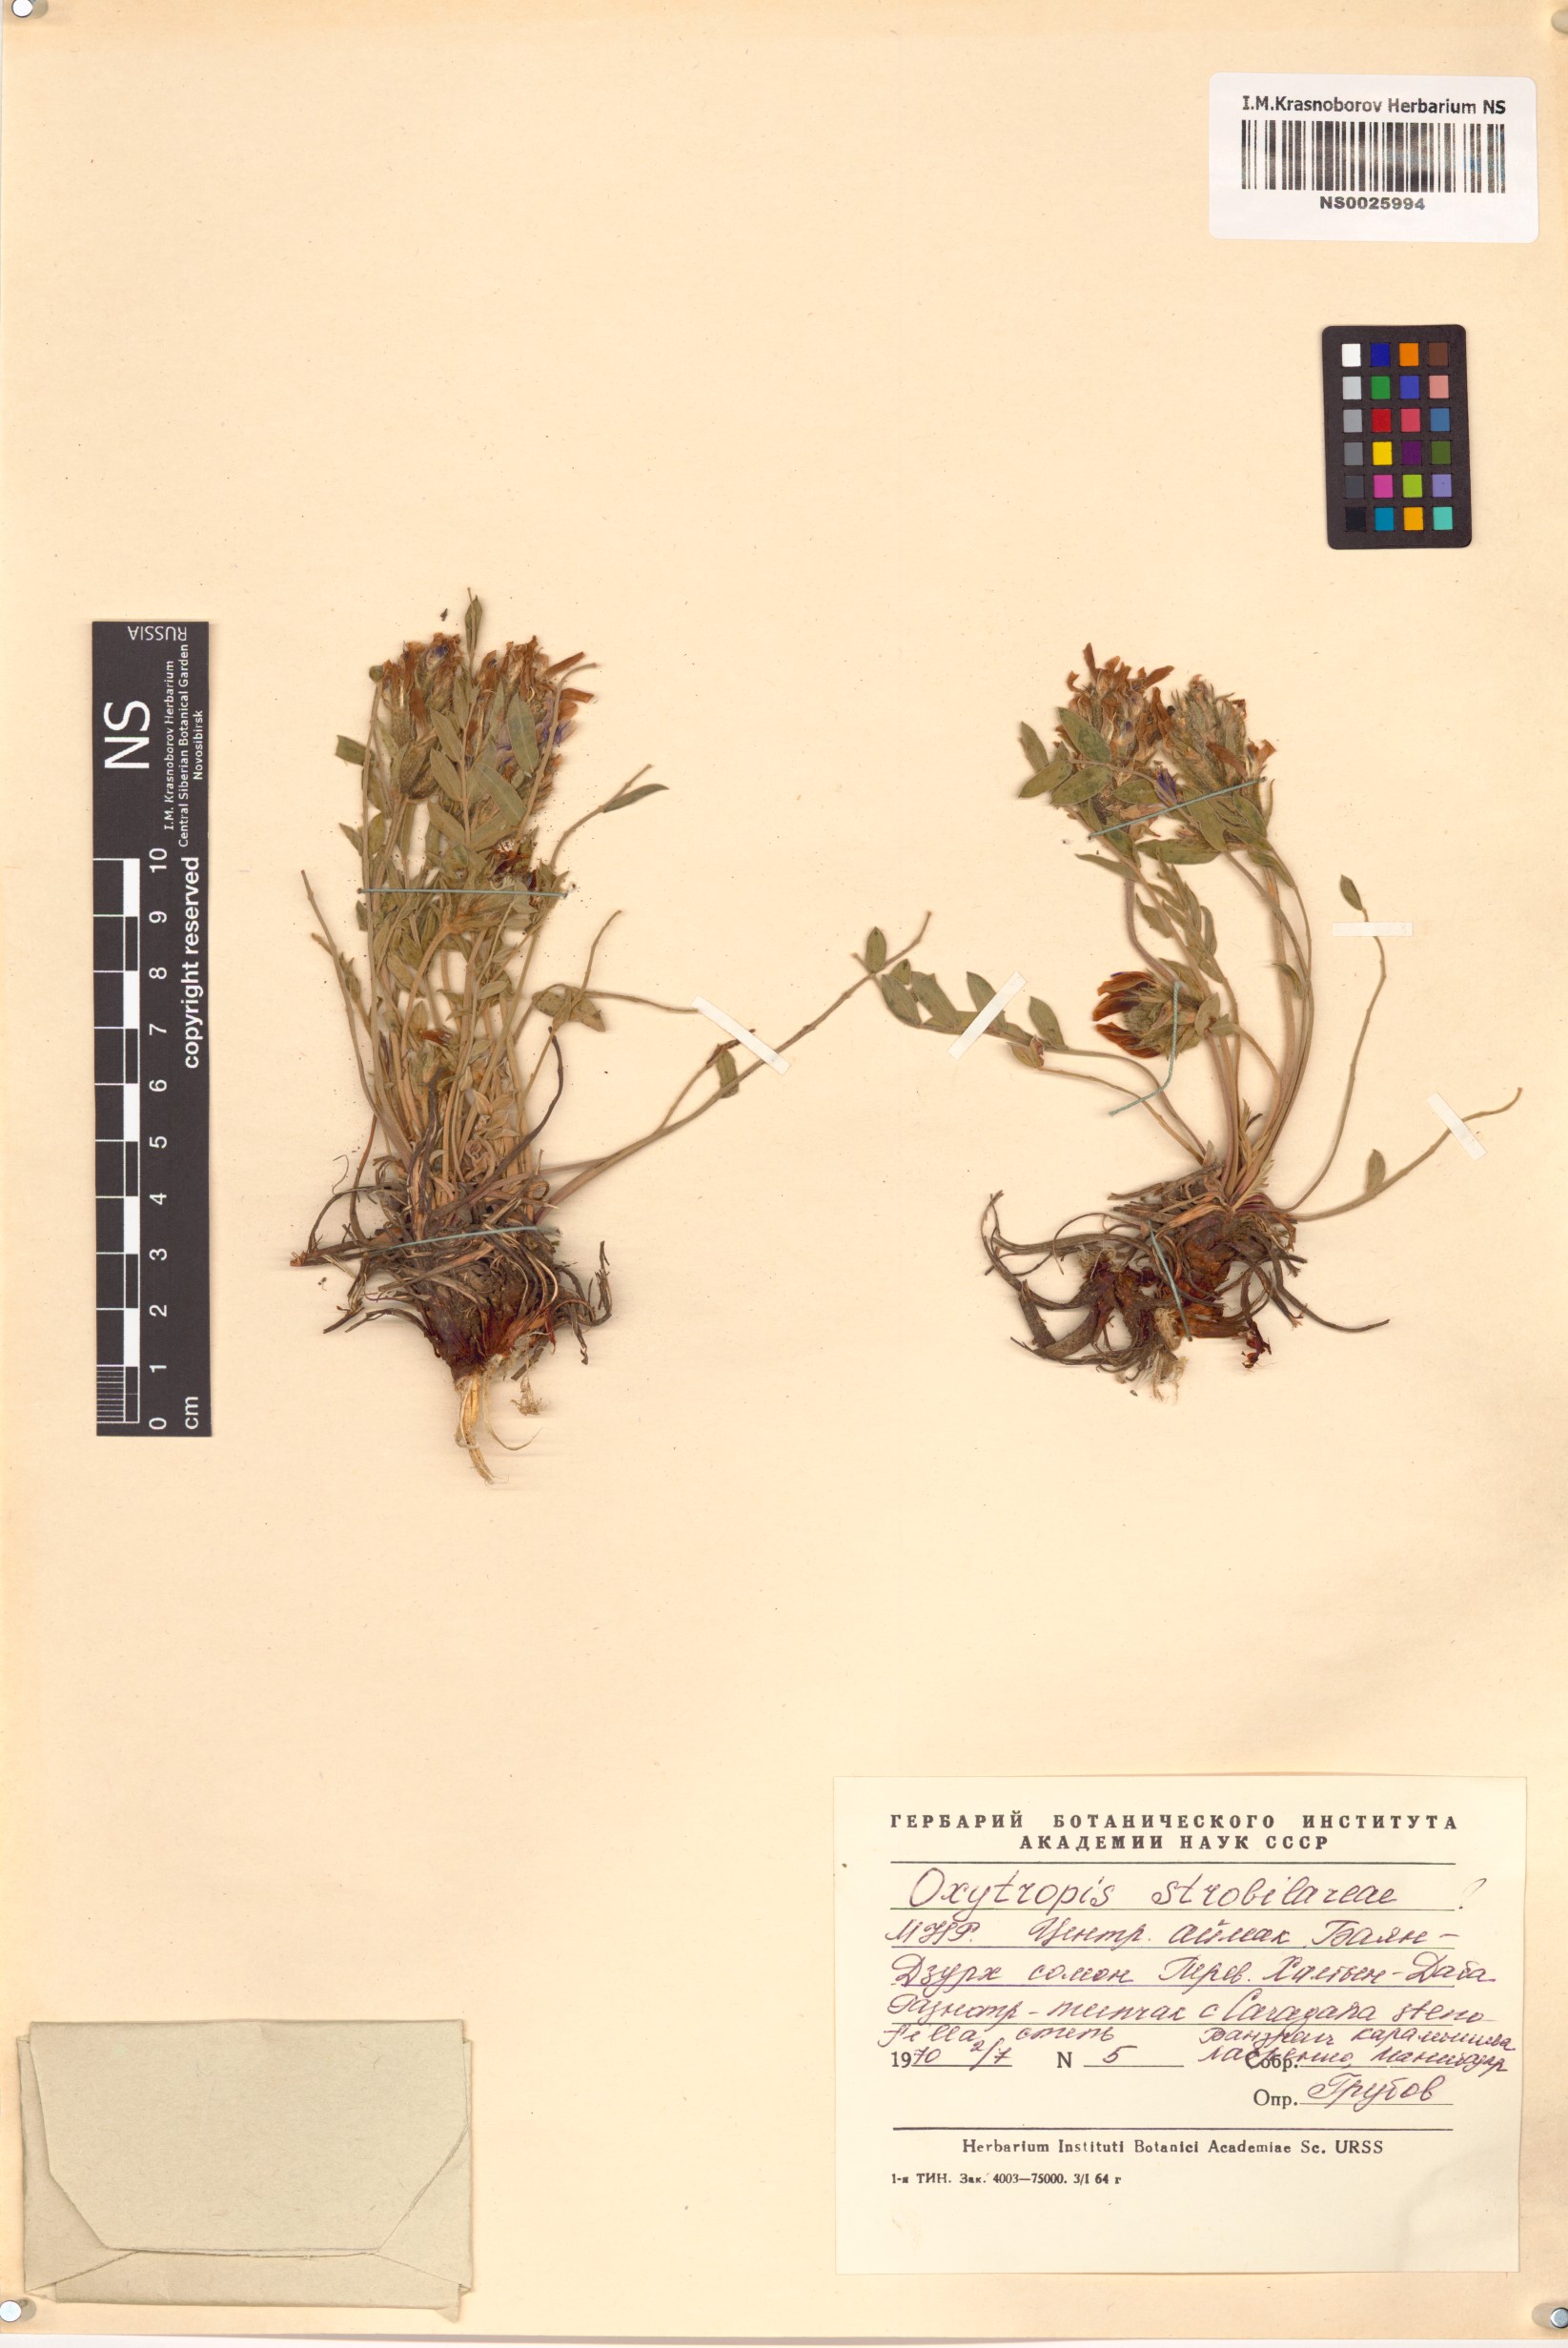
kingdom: Plantae
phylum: Tracheophyta
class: Magnoliopsida
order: Fabales
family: Fabaceae
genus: Oxytropis
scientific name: Oxytropis strobilacea
